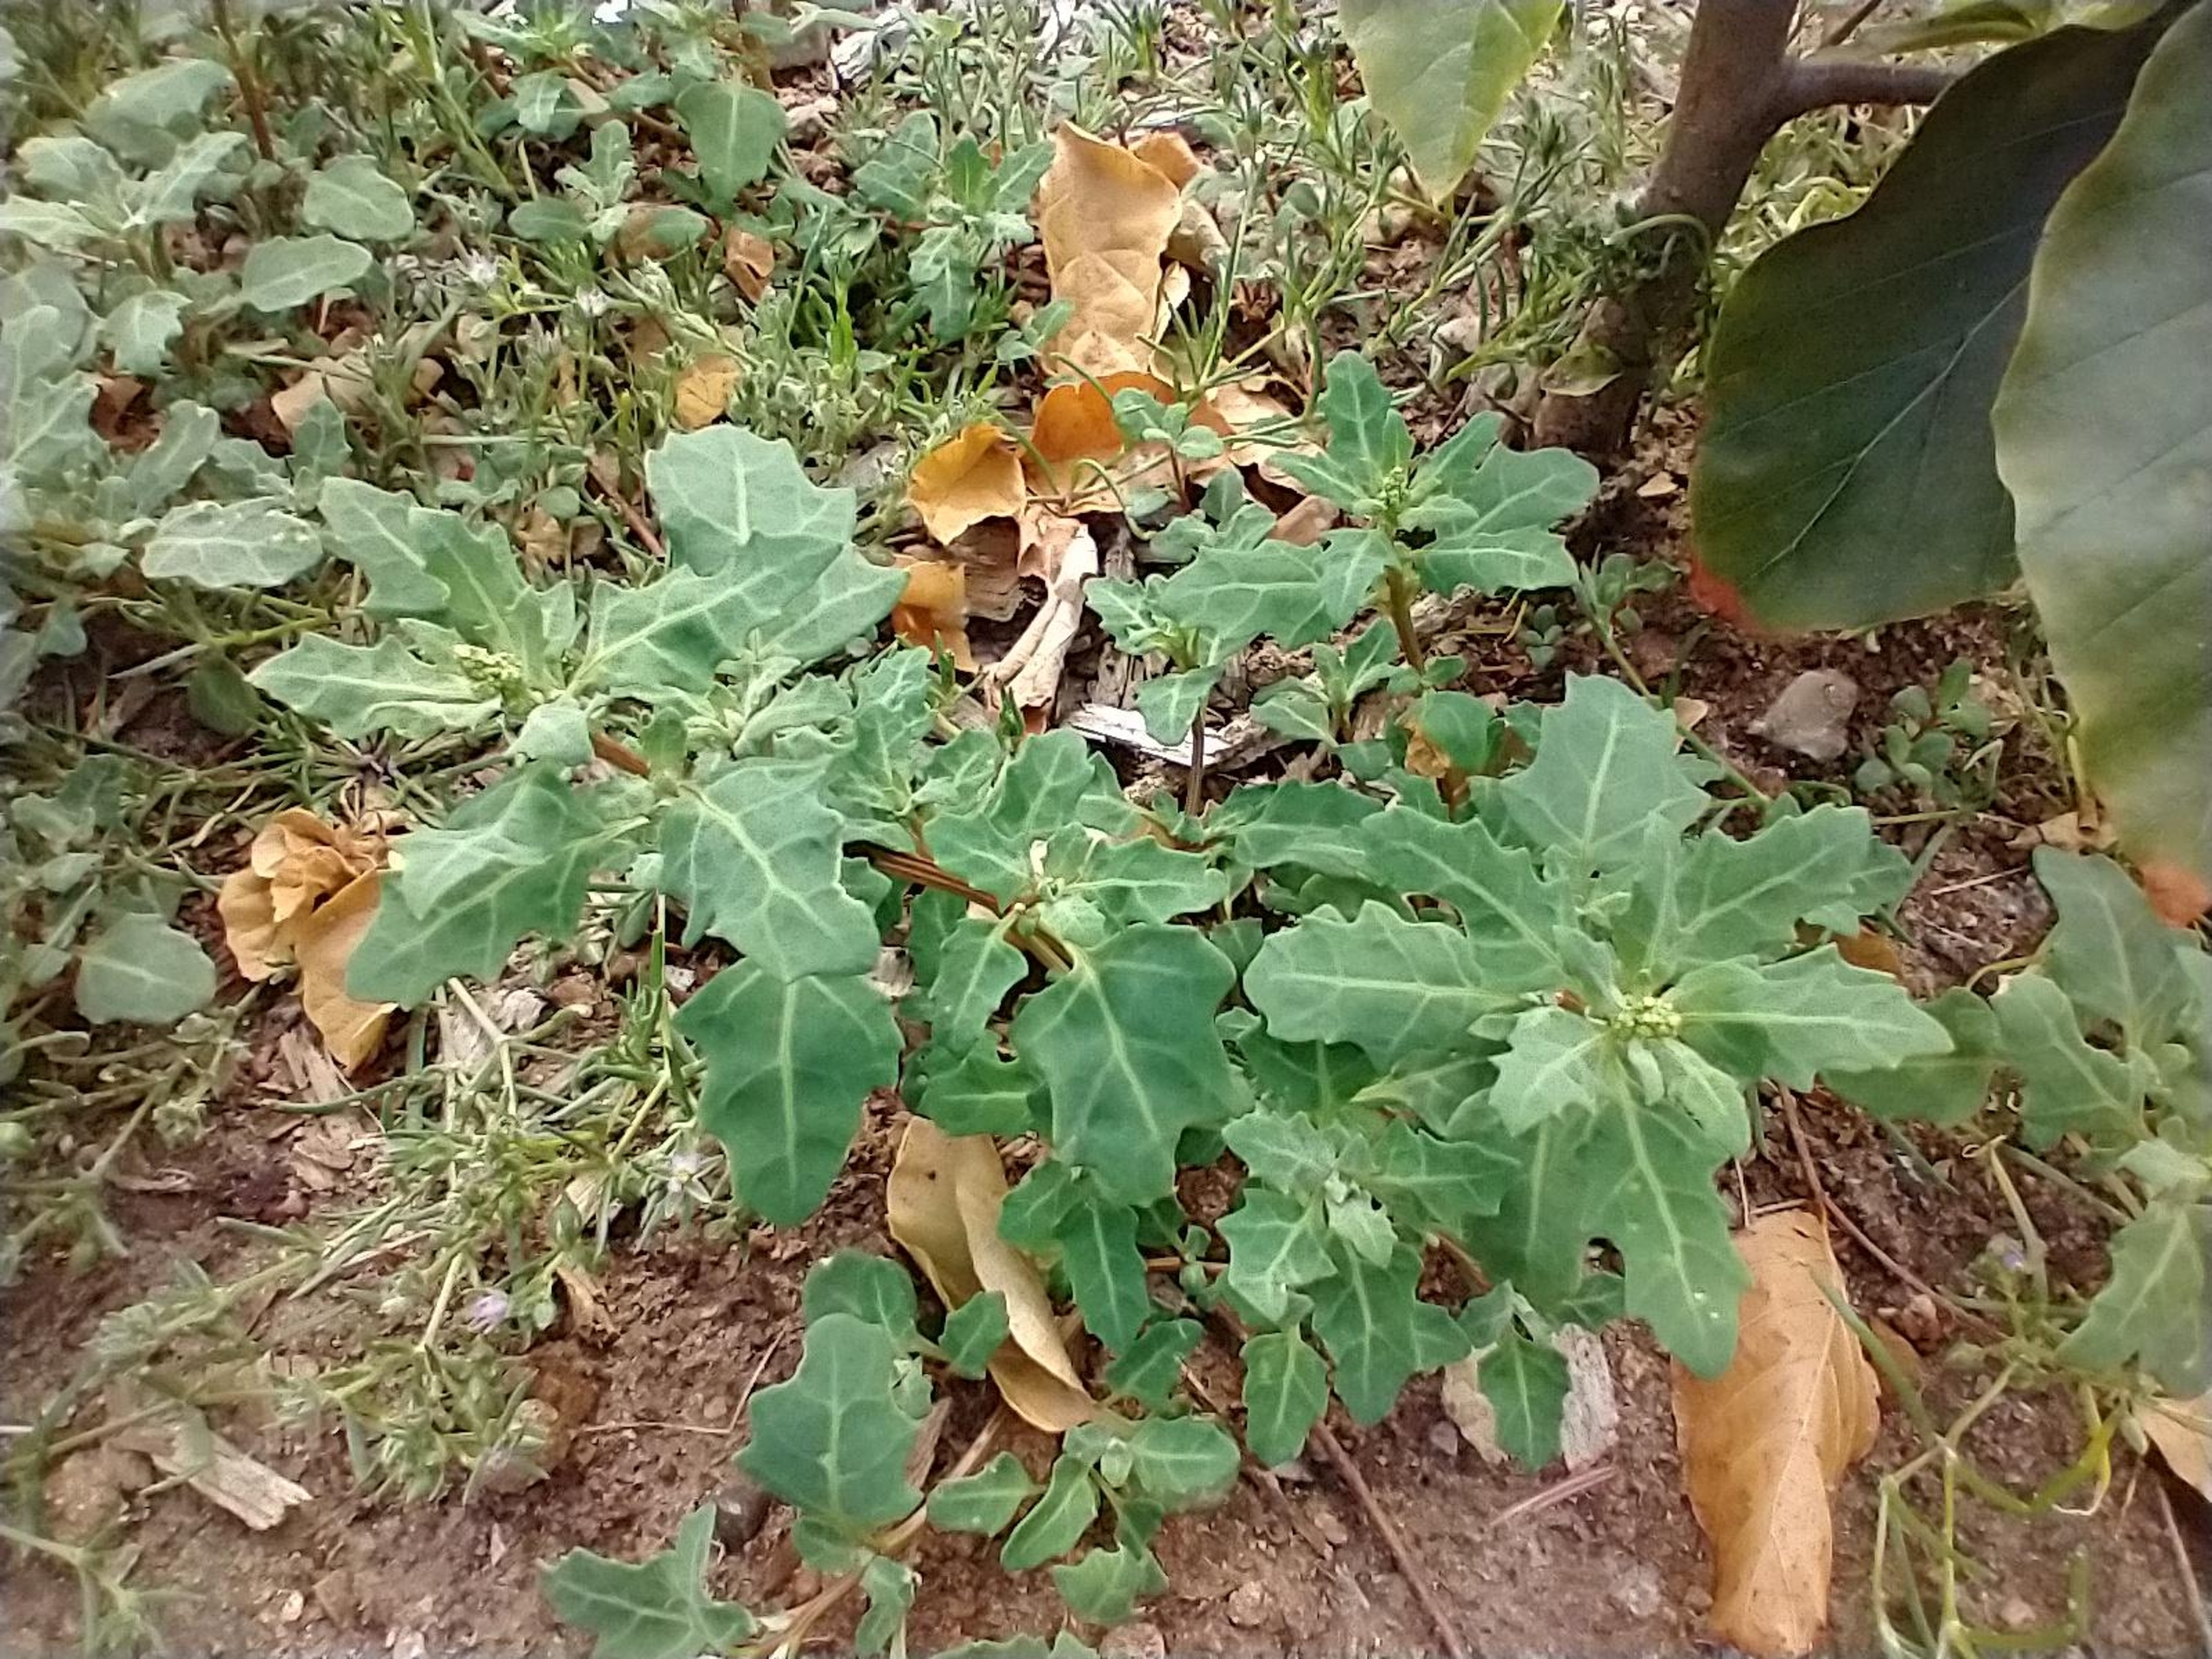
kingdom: Plantae
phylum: Tracheophyta
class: Magnoliopsida
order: Caryophyllales
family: Amaranthaceae
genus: Oxybasis
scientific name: Oxybasis glauca
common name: Blågrøn gåsefod
